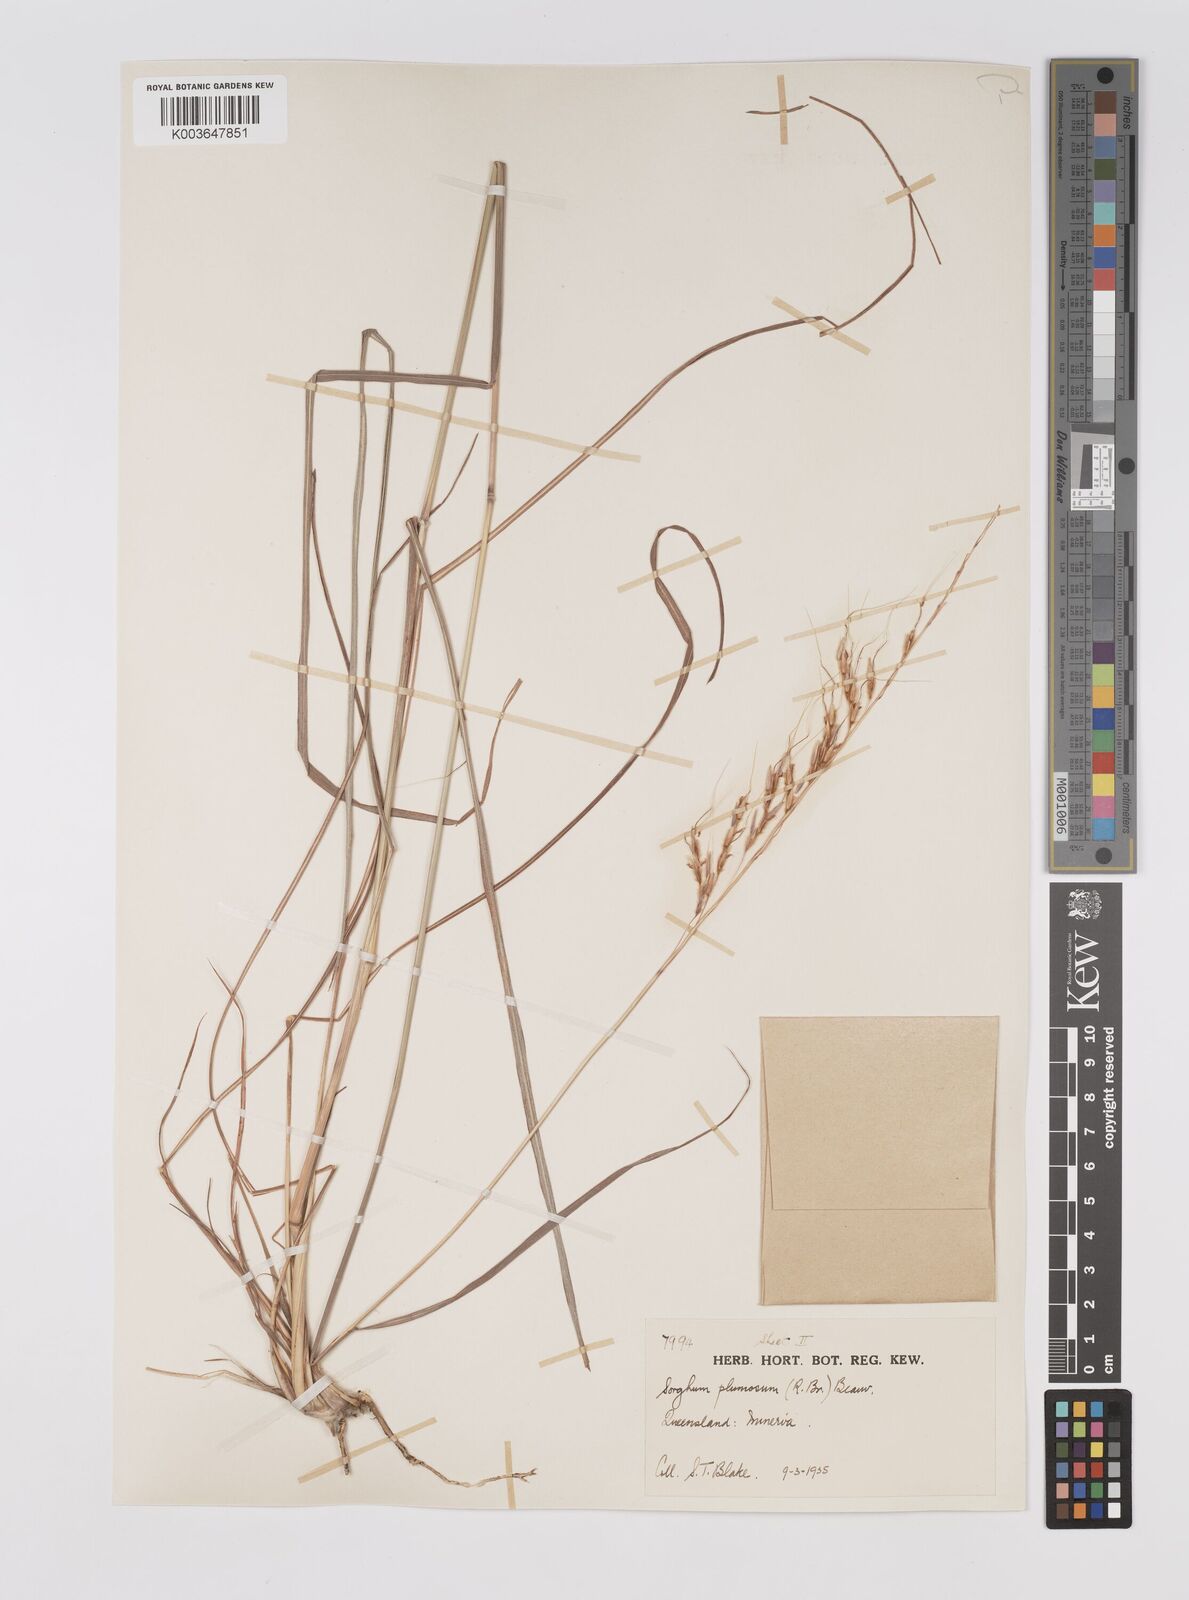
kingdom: Plantae
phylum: Tracheophyta
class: Liliopsida
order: Poales
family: Poaceae
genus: Sarga
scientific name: Sarga plumosa
